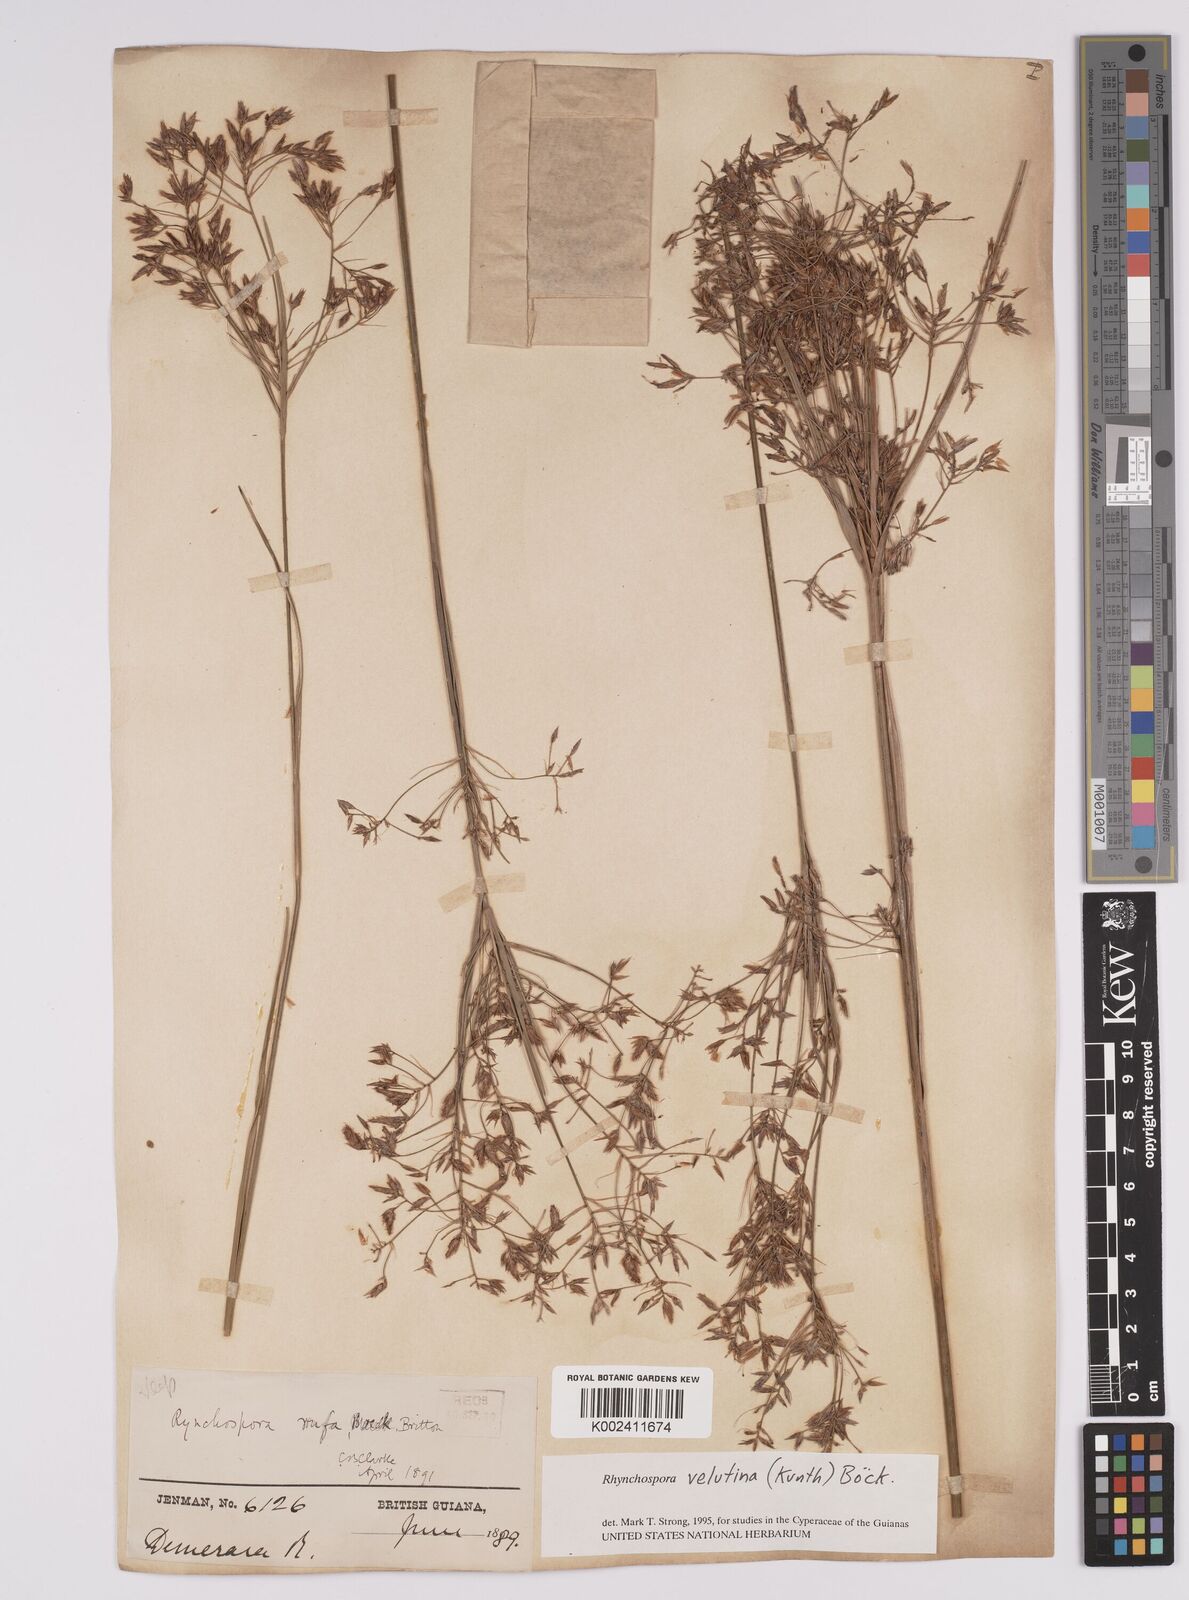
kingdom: Plantae
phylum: Tracheophyta
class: Liliopsida
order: Poales
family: Cyperaceae
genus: Rhynchospora
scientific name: Rhynchospora velutina
